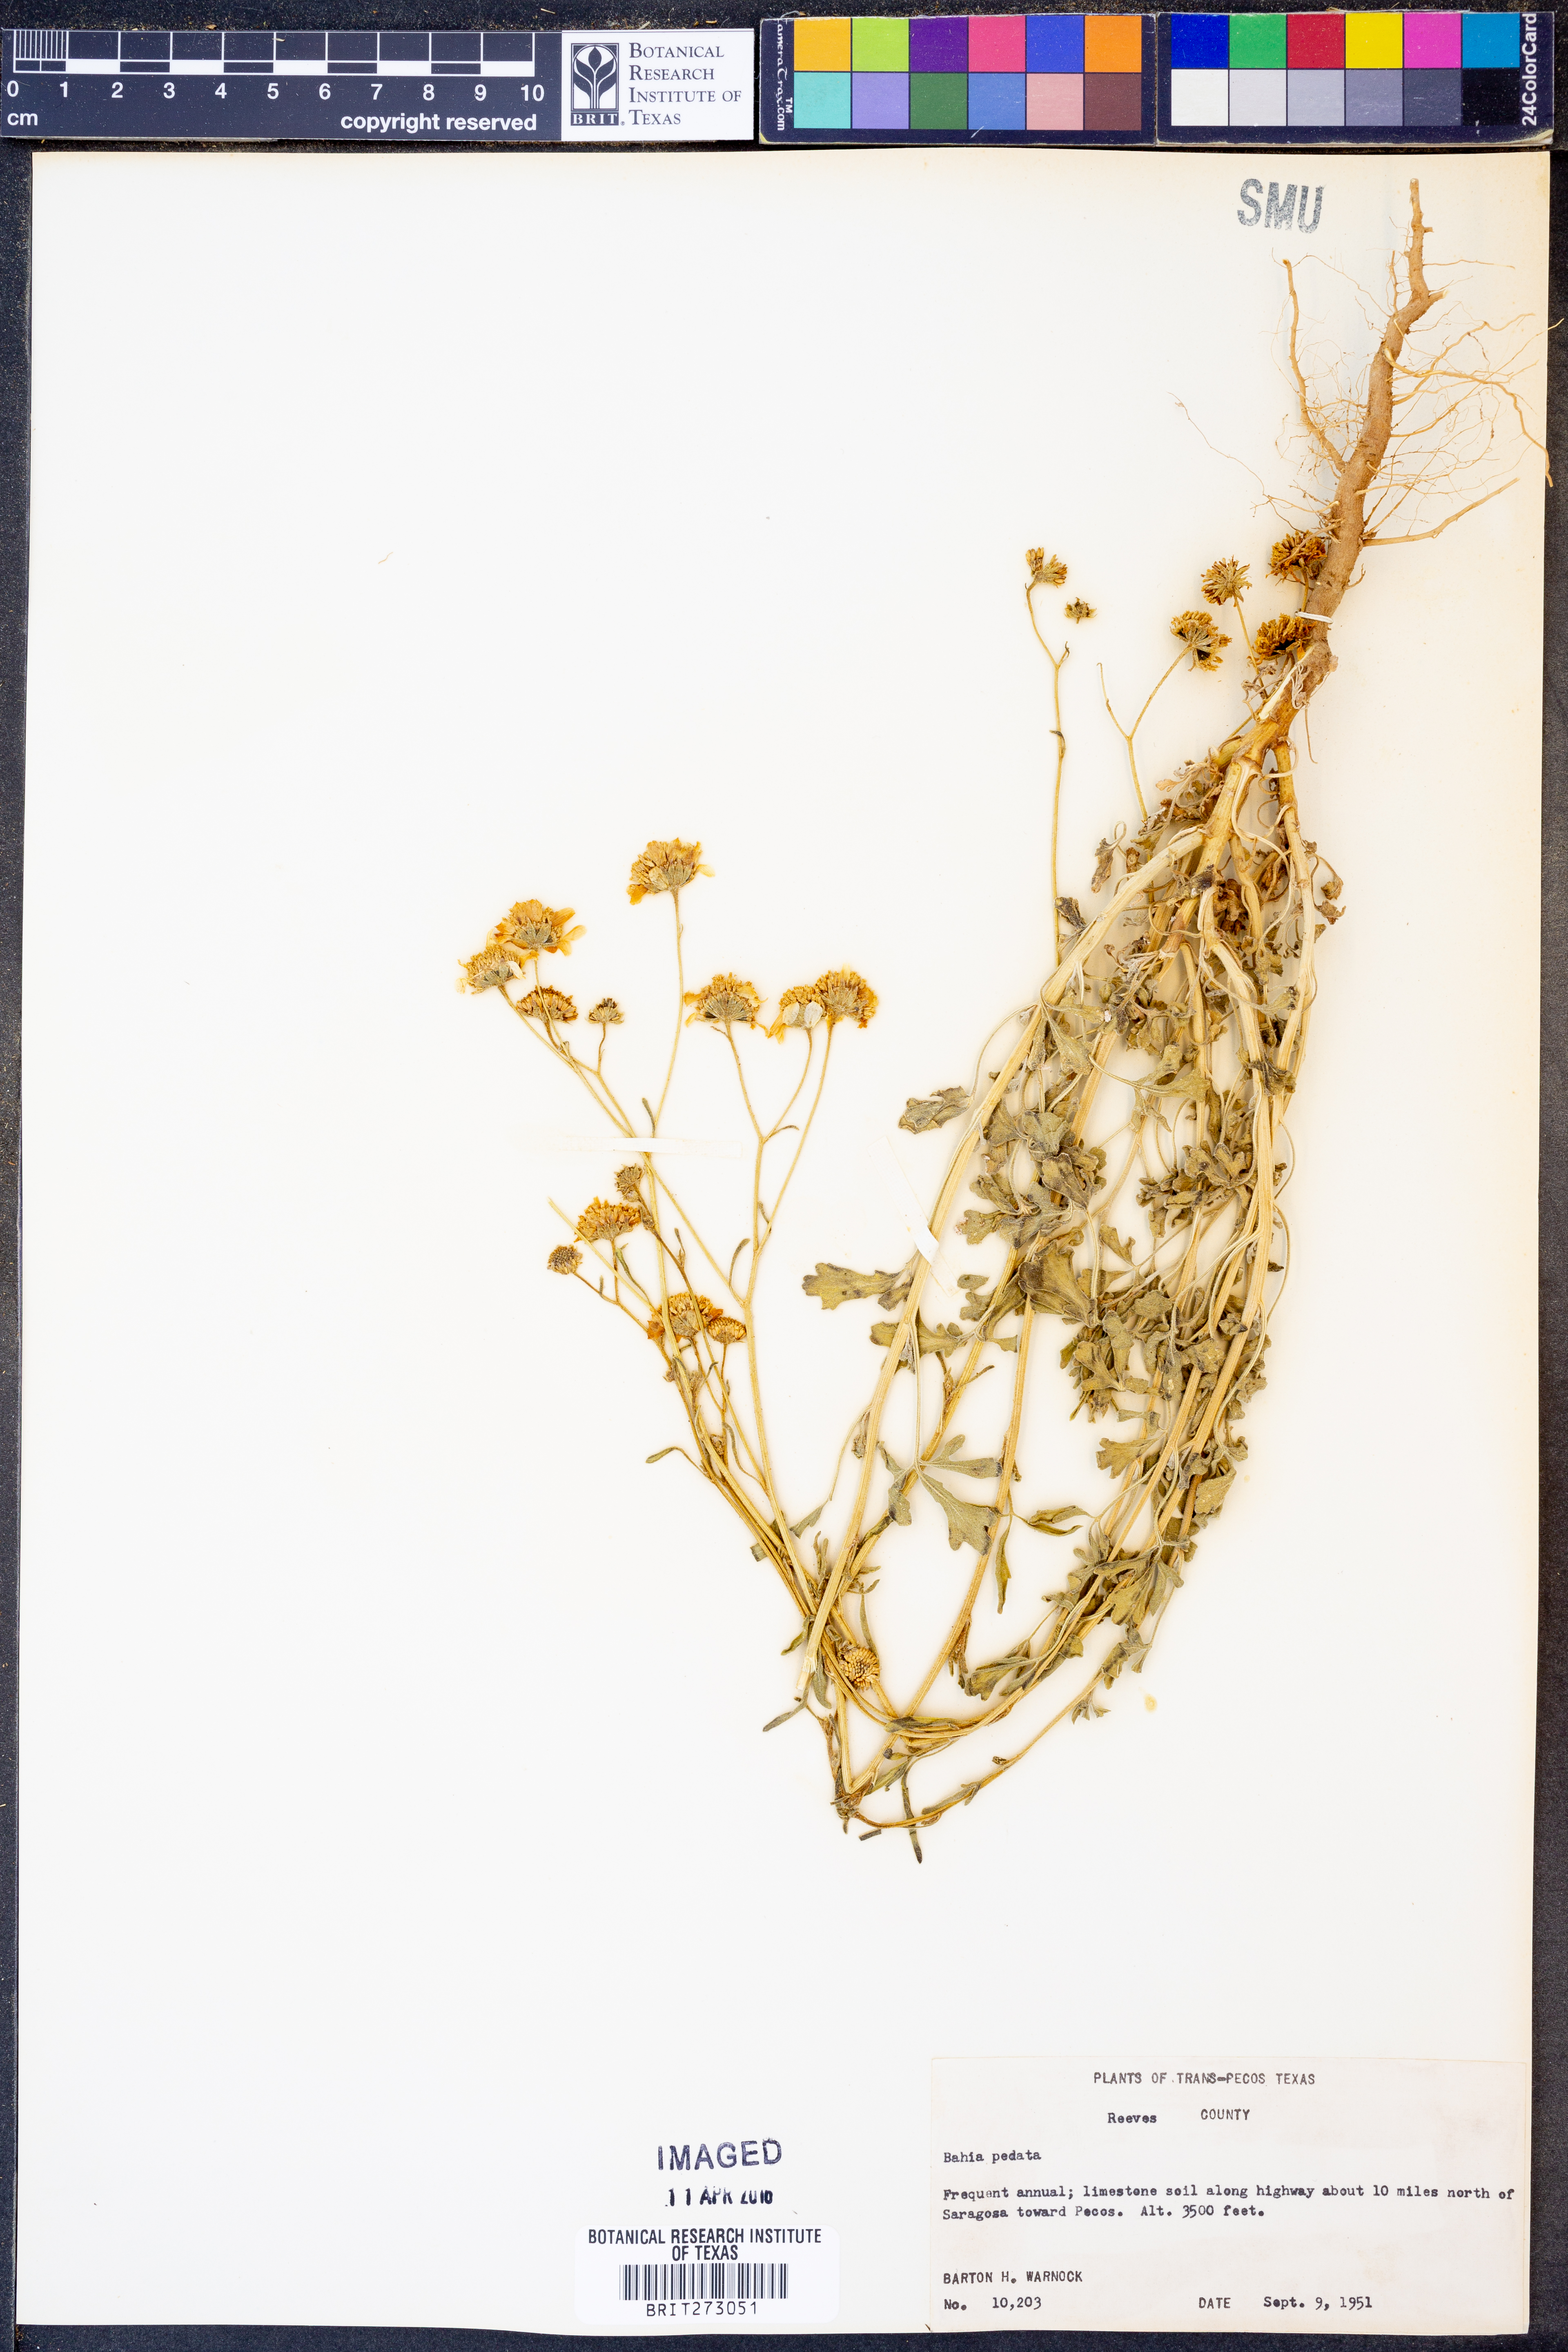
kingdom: Plantae
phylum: Tracheophyta
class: Magnoliopsida
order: Asterales
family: Asteraceae
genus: Hymenothrix
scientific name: Hymenothrix pedata
